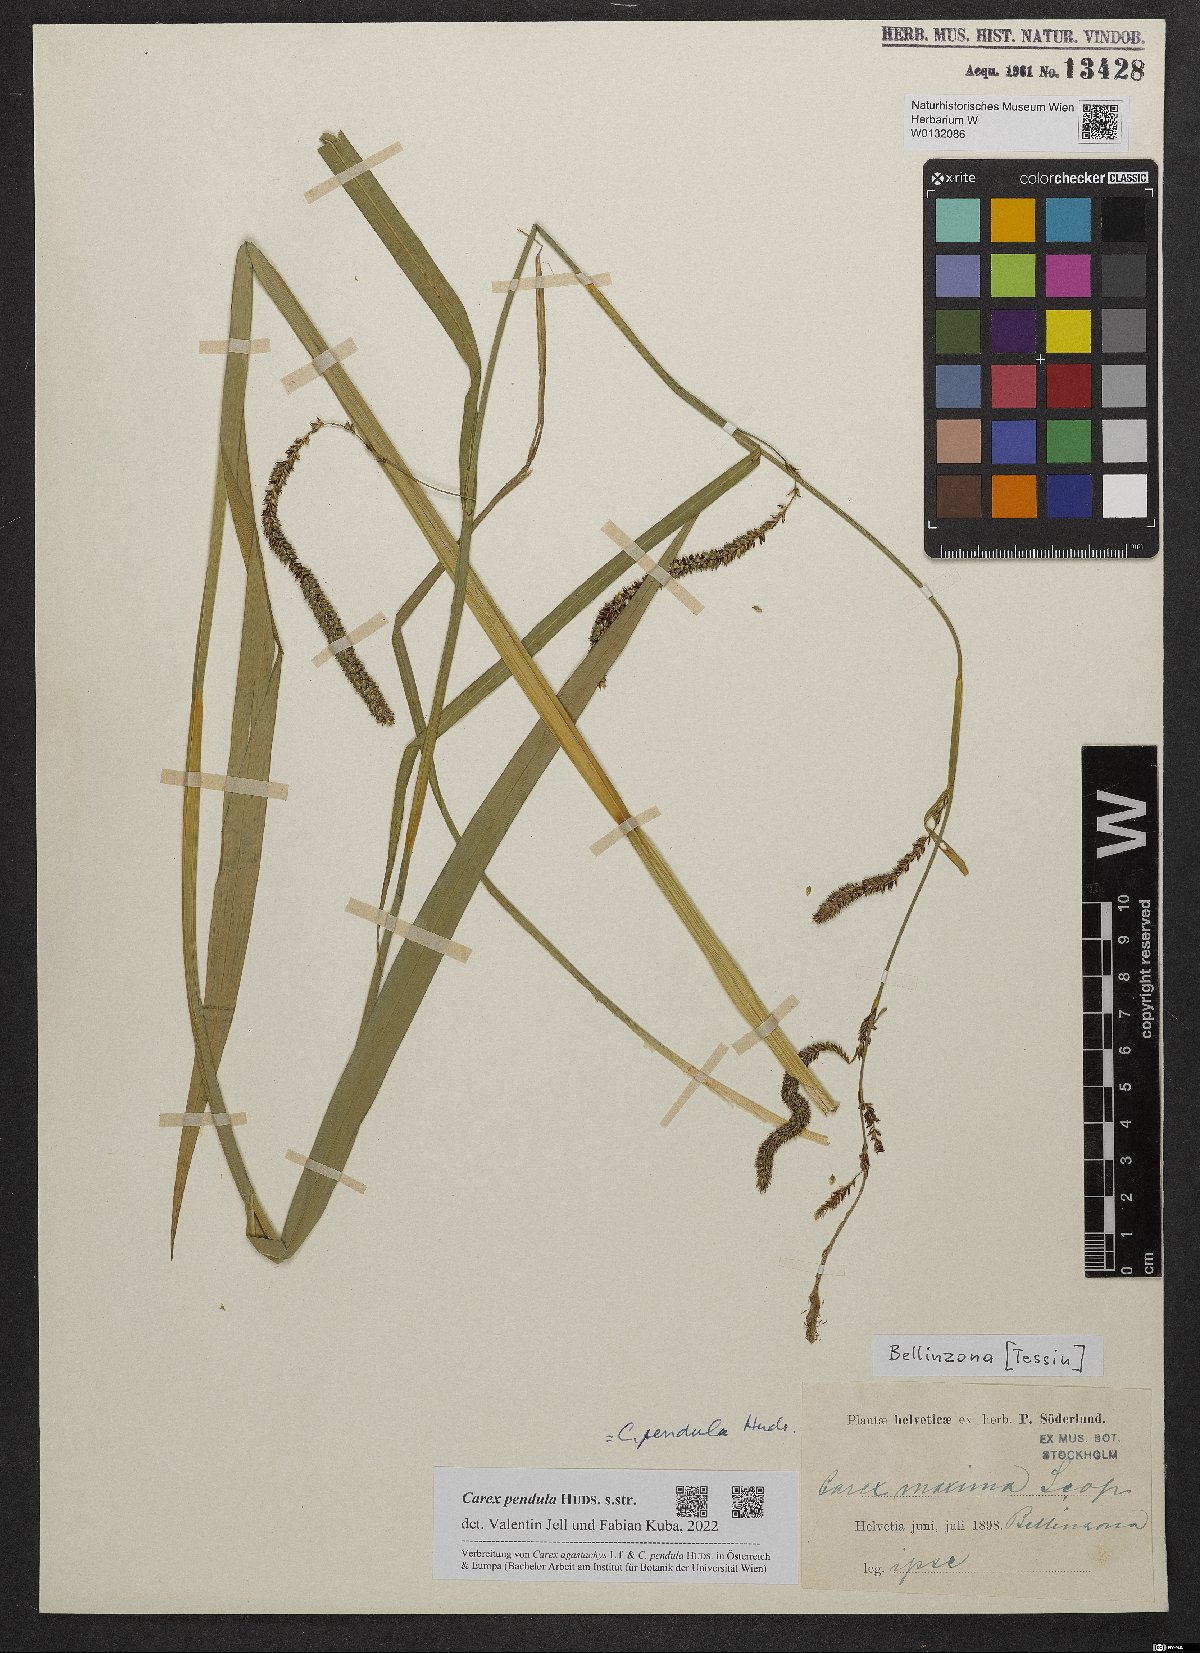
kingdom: Plantae
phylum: Tracheophyta
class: Liliopsida
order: Poales
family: Cyperaceae
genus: Carex
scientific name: Carex pendula
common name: Pendulous sedge
